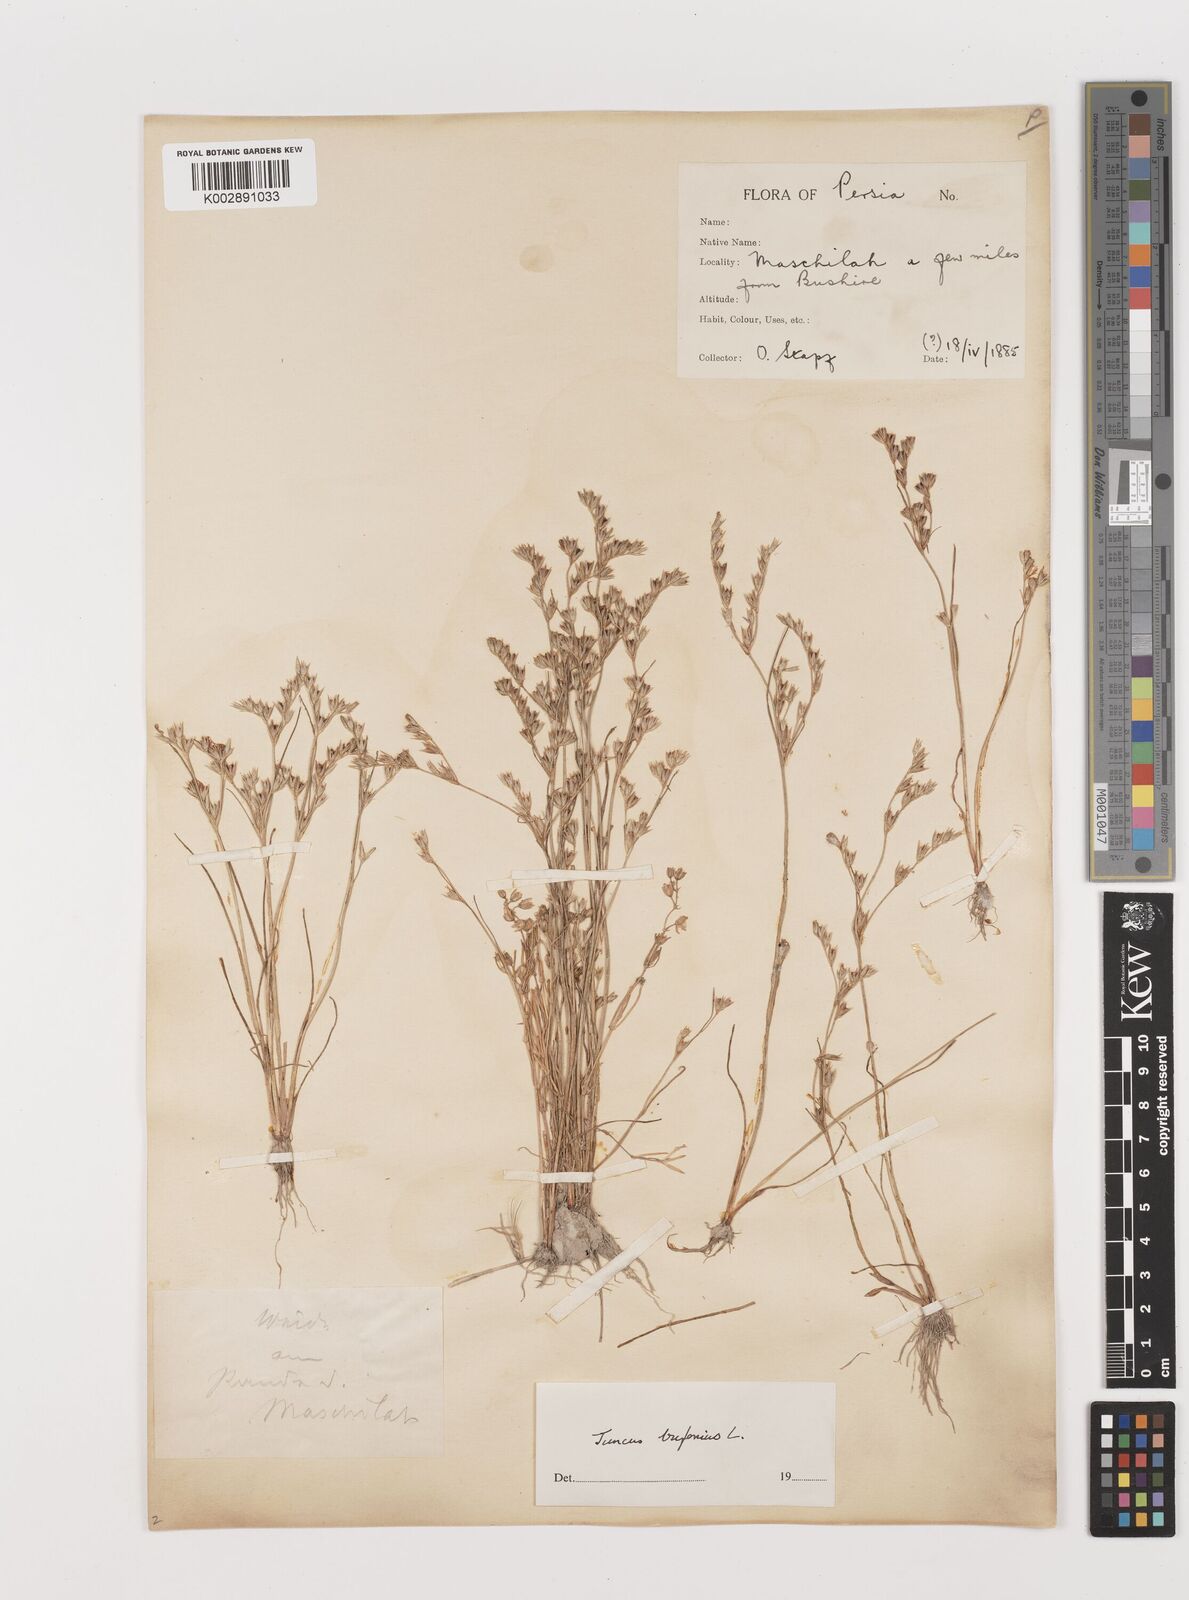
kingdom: Plantae
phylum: Tracheophyta
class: Liliopsida
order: Poales
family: Juncaceae
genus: Juncus
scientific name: Juncus bufonius
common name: Toad rush
